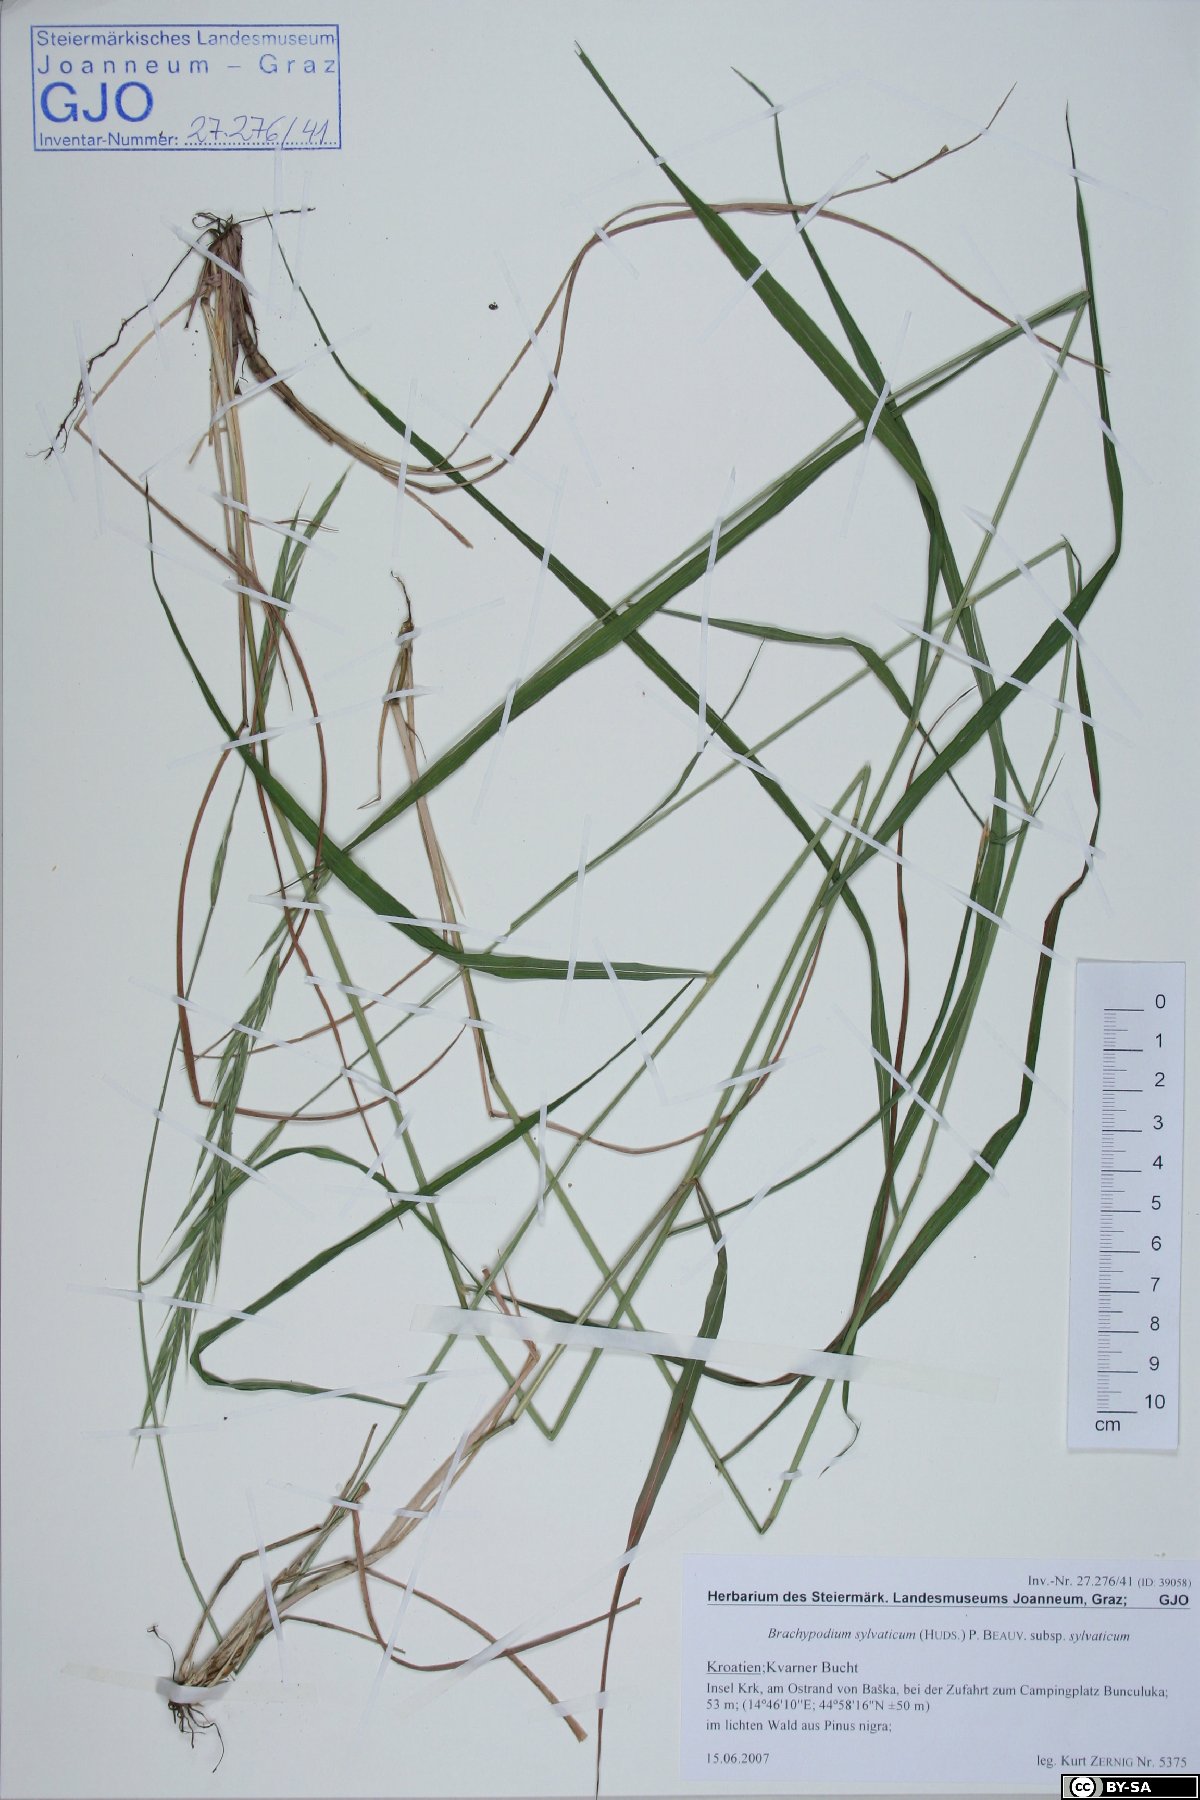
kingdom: Plantae
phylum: Tracheophyta
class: Liliopsida
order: Poales
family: Poaceae
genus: Brachypodium
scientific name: Brachypodium sylvaticum
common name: False-brome
